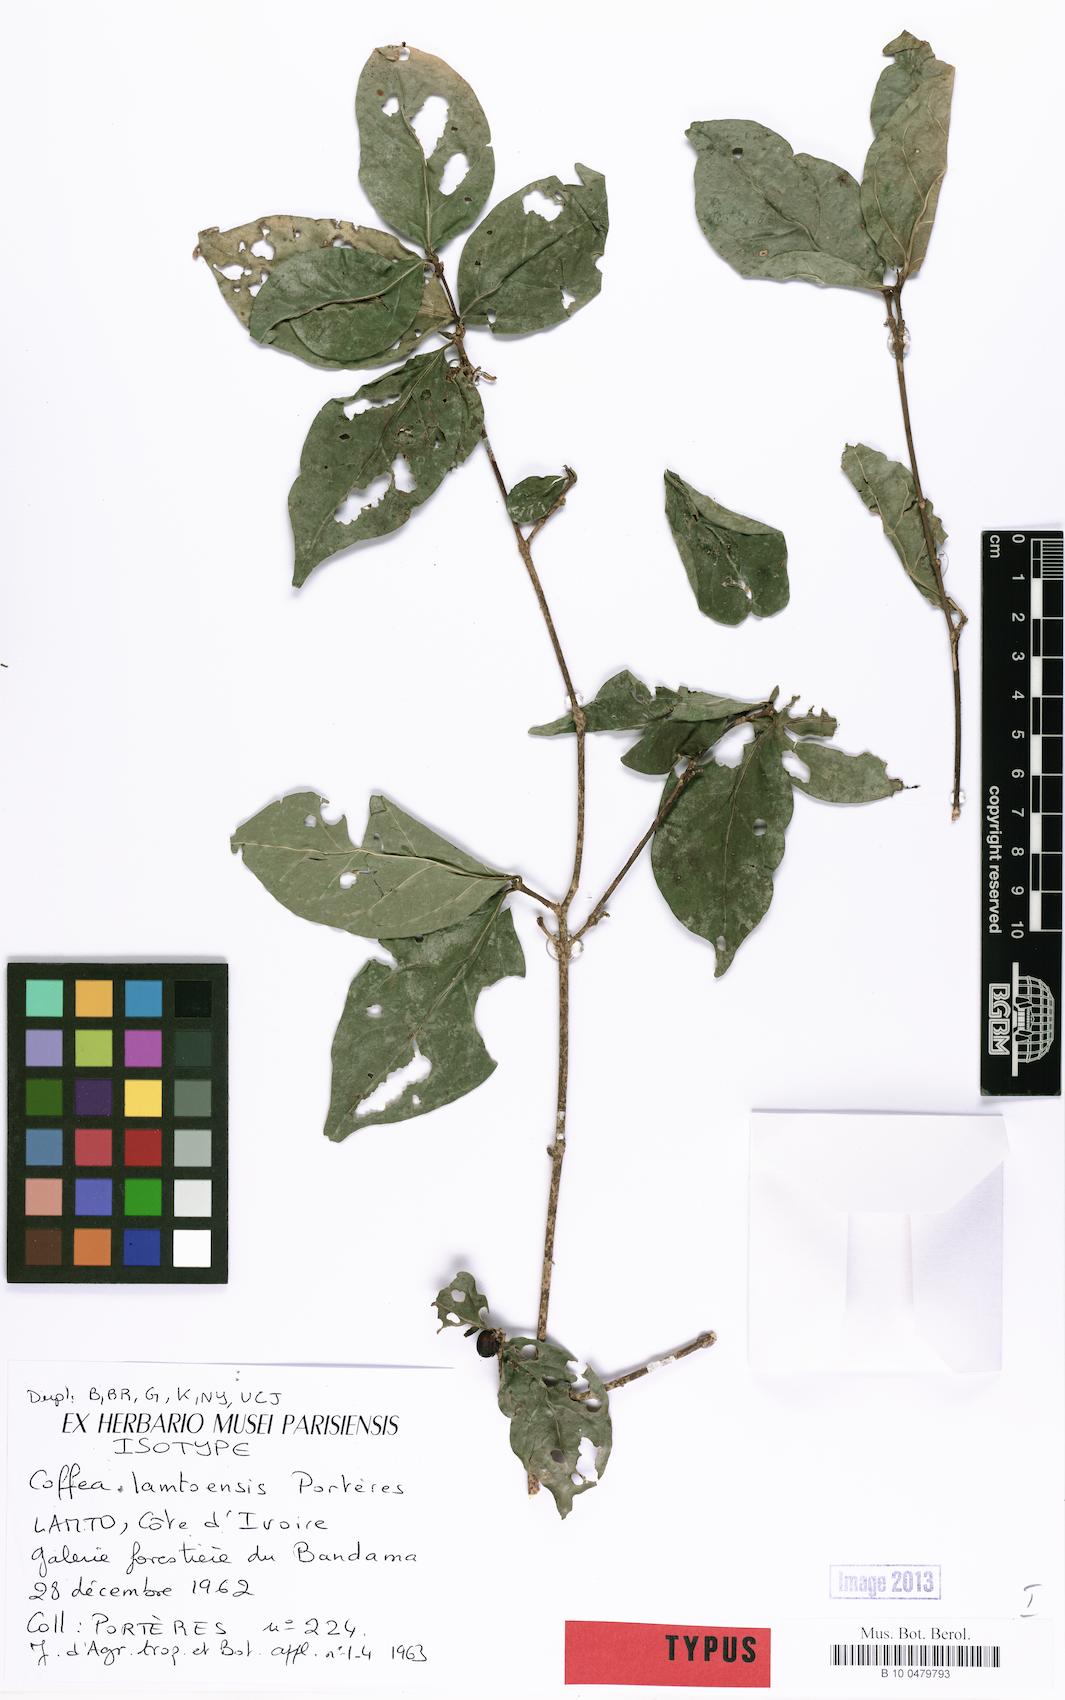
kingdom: Plantae
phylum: Tracheophyta
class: Magnoliopsida
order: Gentianales
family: Rubiaceae
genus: Coffea
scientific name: Coffea ebracteolata
